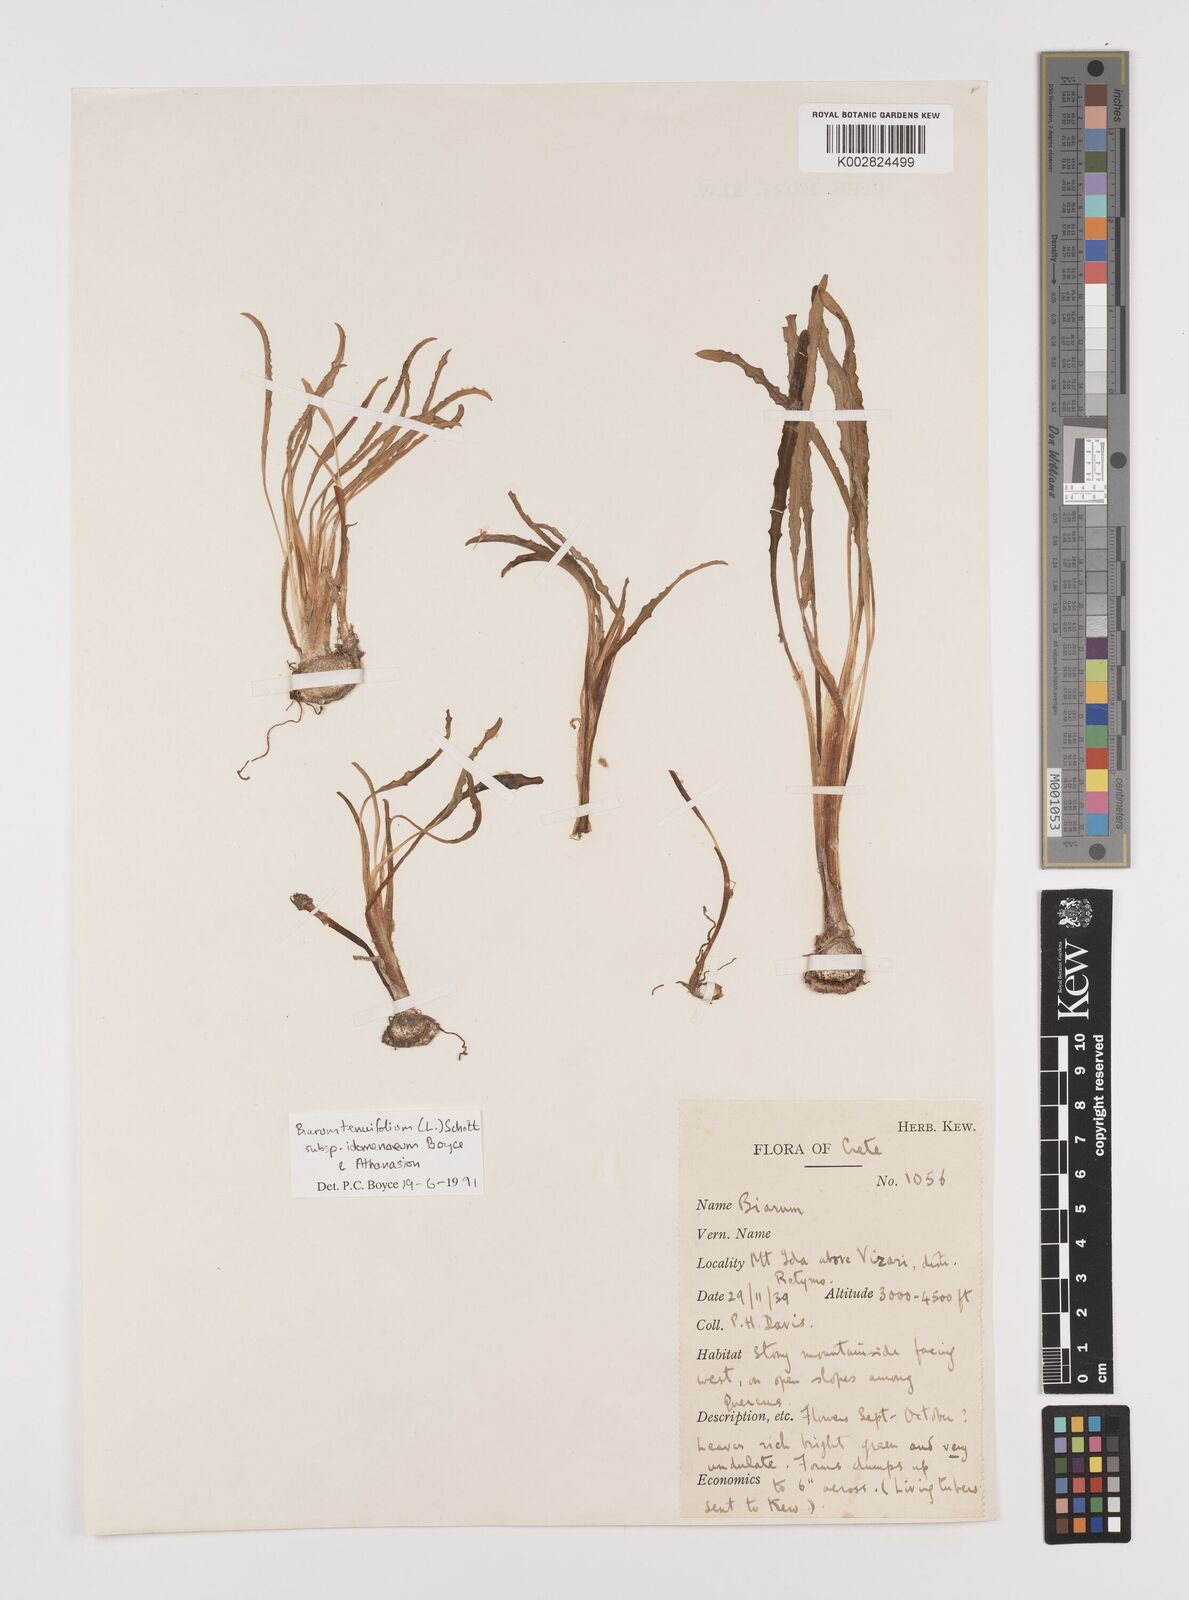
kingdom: Plantae
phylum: Tracheophyta
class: Liliopsida
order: Alismatales
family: Araceae
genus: Biarum
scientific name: Biarum tenuifolium
